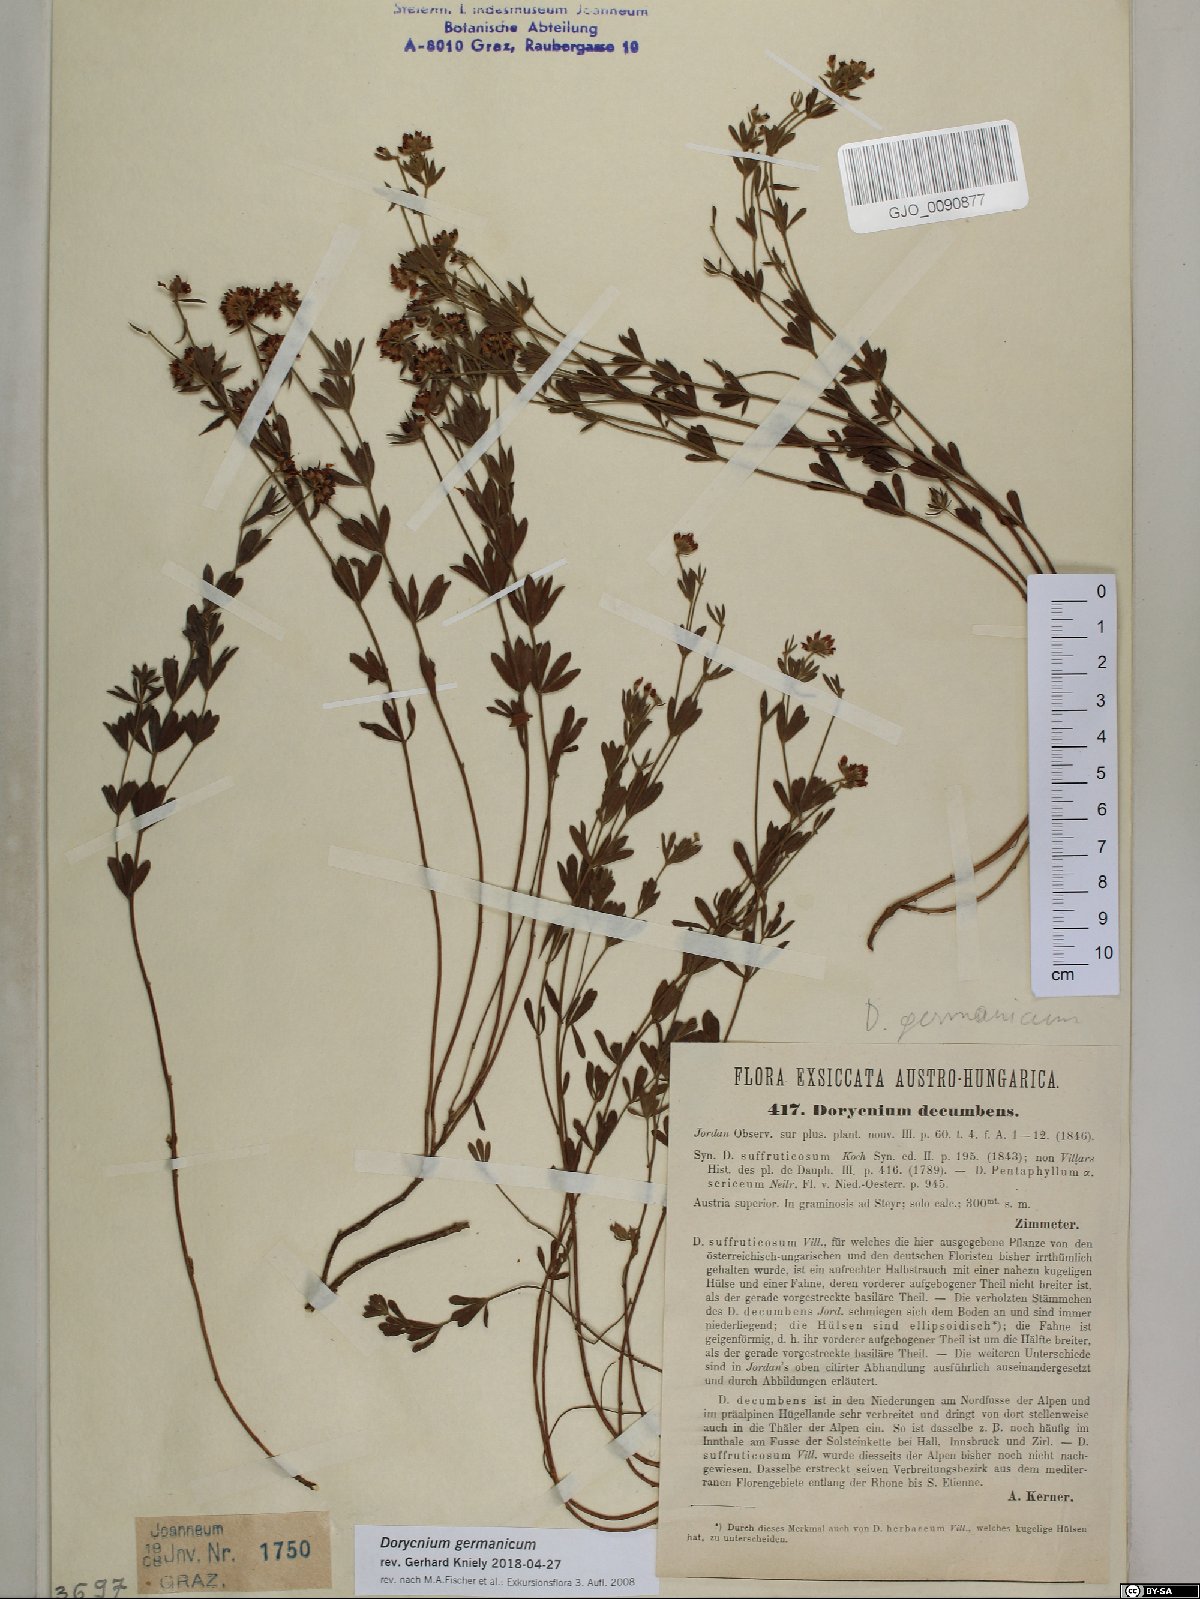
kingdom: Plantae
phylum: Tracheophyta
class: Magnoliopsida
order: Fabales
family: Fabaceae
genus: Lotus
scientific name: Lotus germanicus
